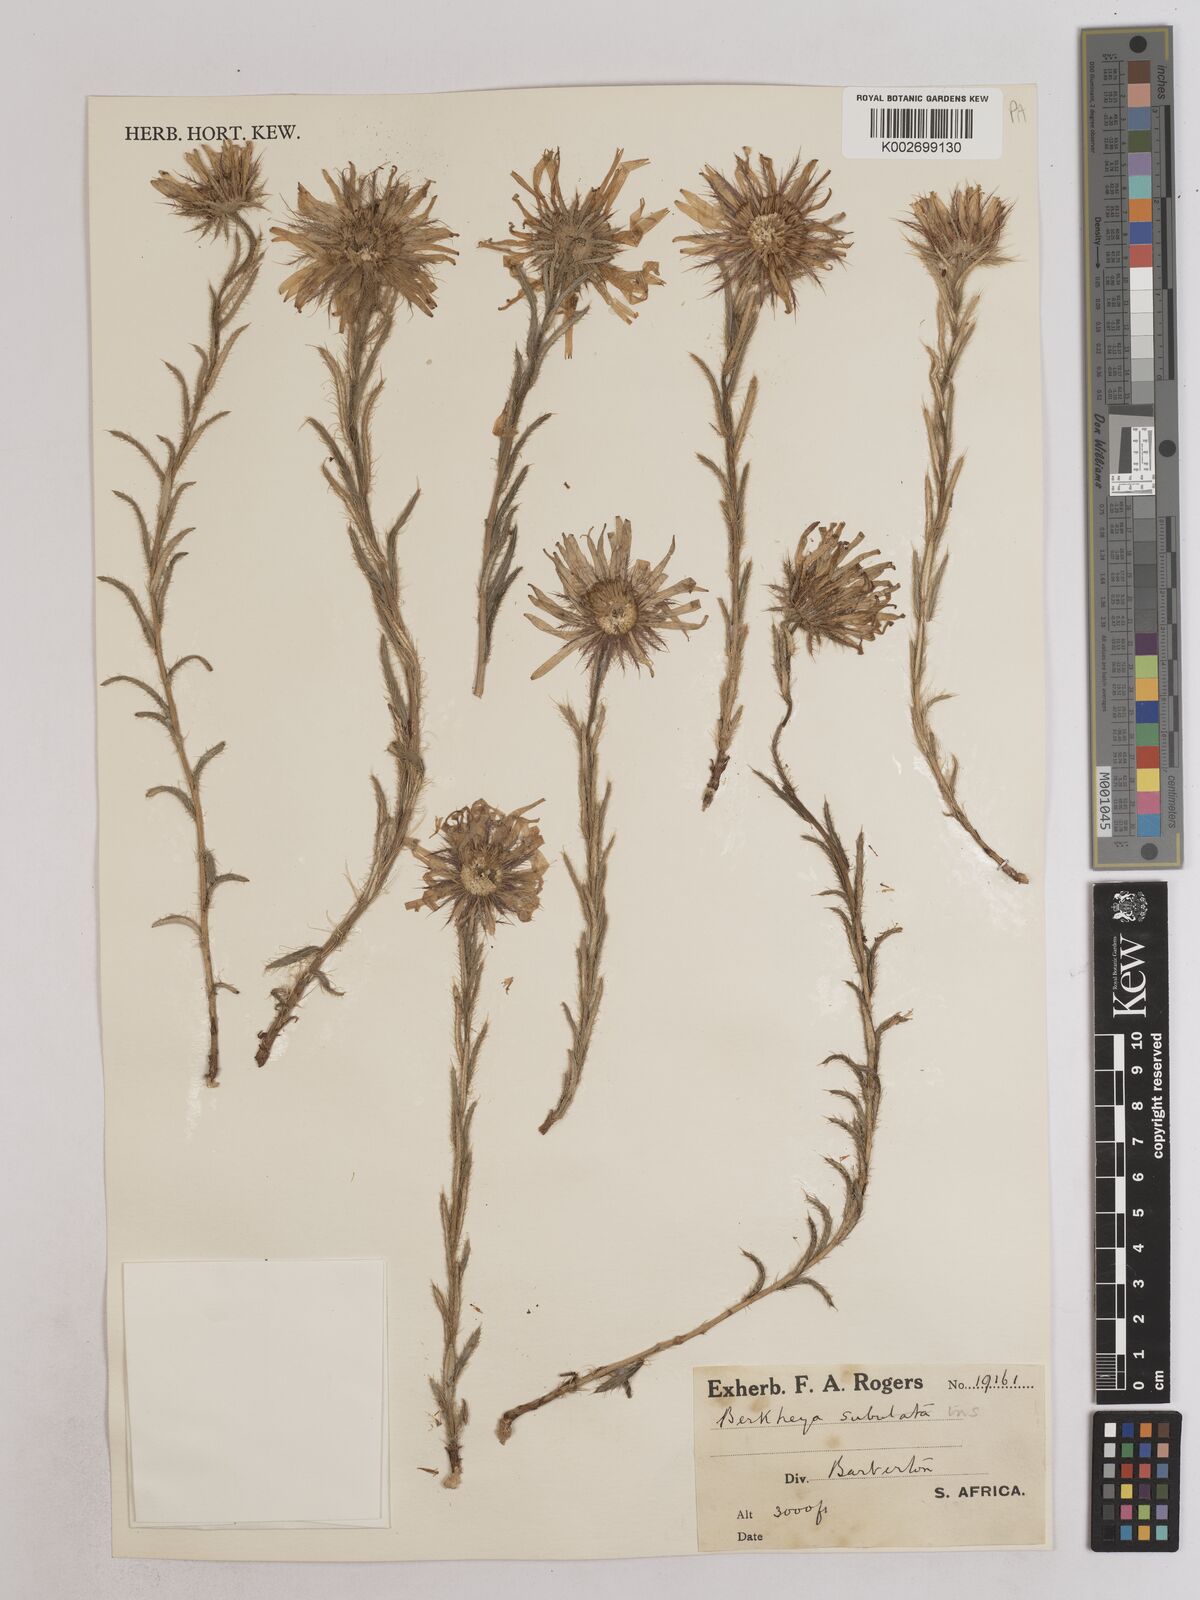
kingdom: Plantae
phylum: Tracheophyta
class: Magnoliopsida
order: Asterales
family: Asteraceae
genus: Berkheya
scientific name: Berkheya insignis
